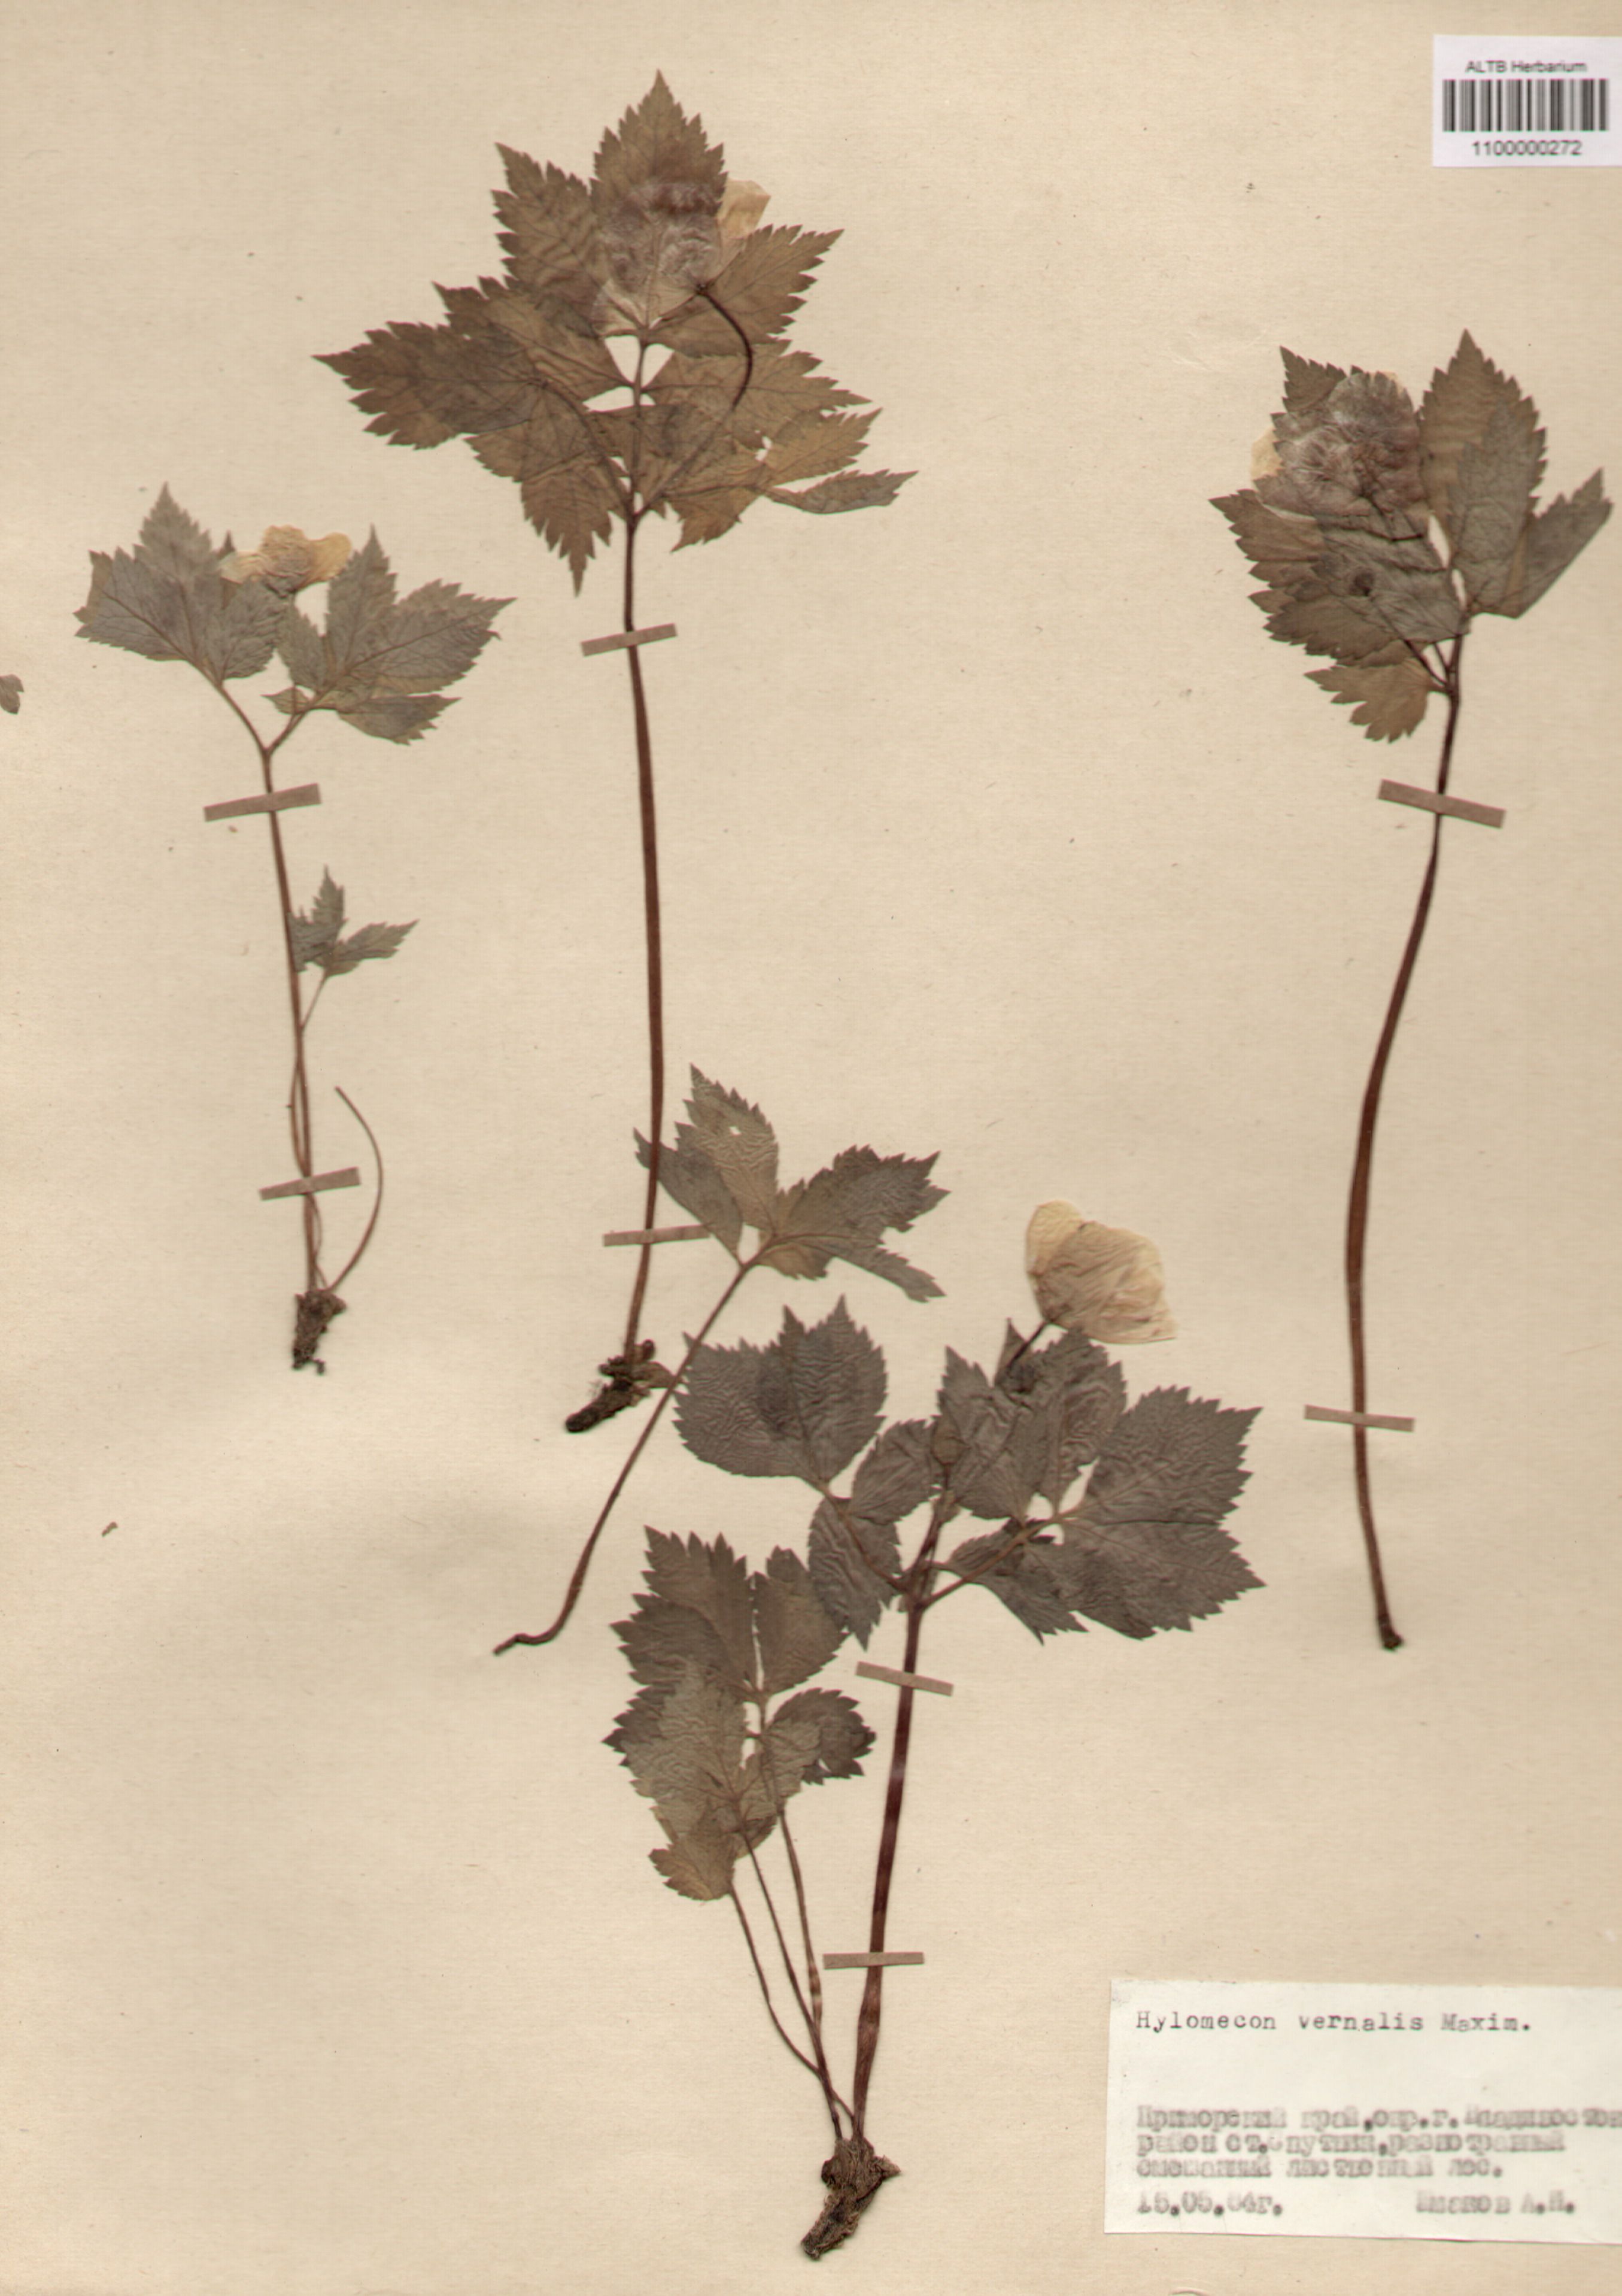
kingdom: Plantae
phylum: Tracheophyta
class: Magnoliopsida
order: Ranunculales
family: Papaveraceae
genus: Glaucium
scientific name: Glaucium
